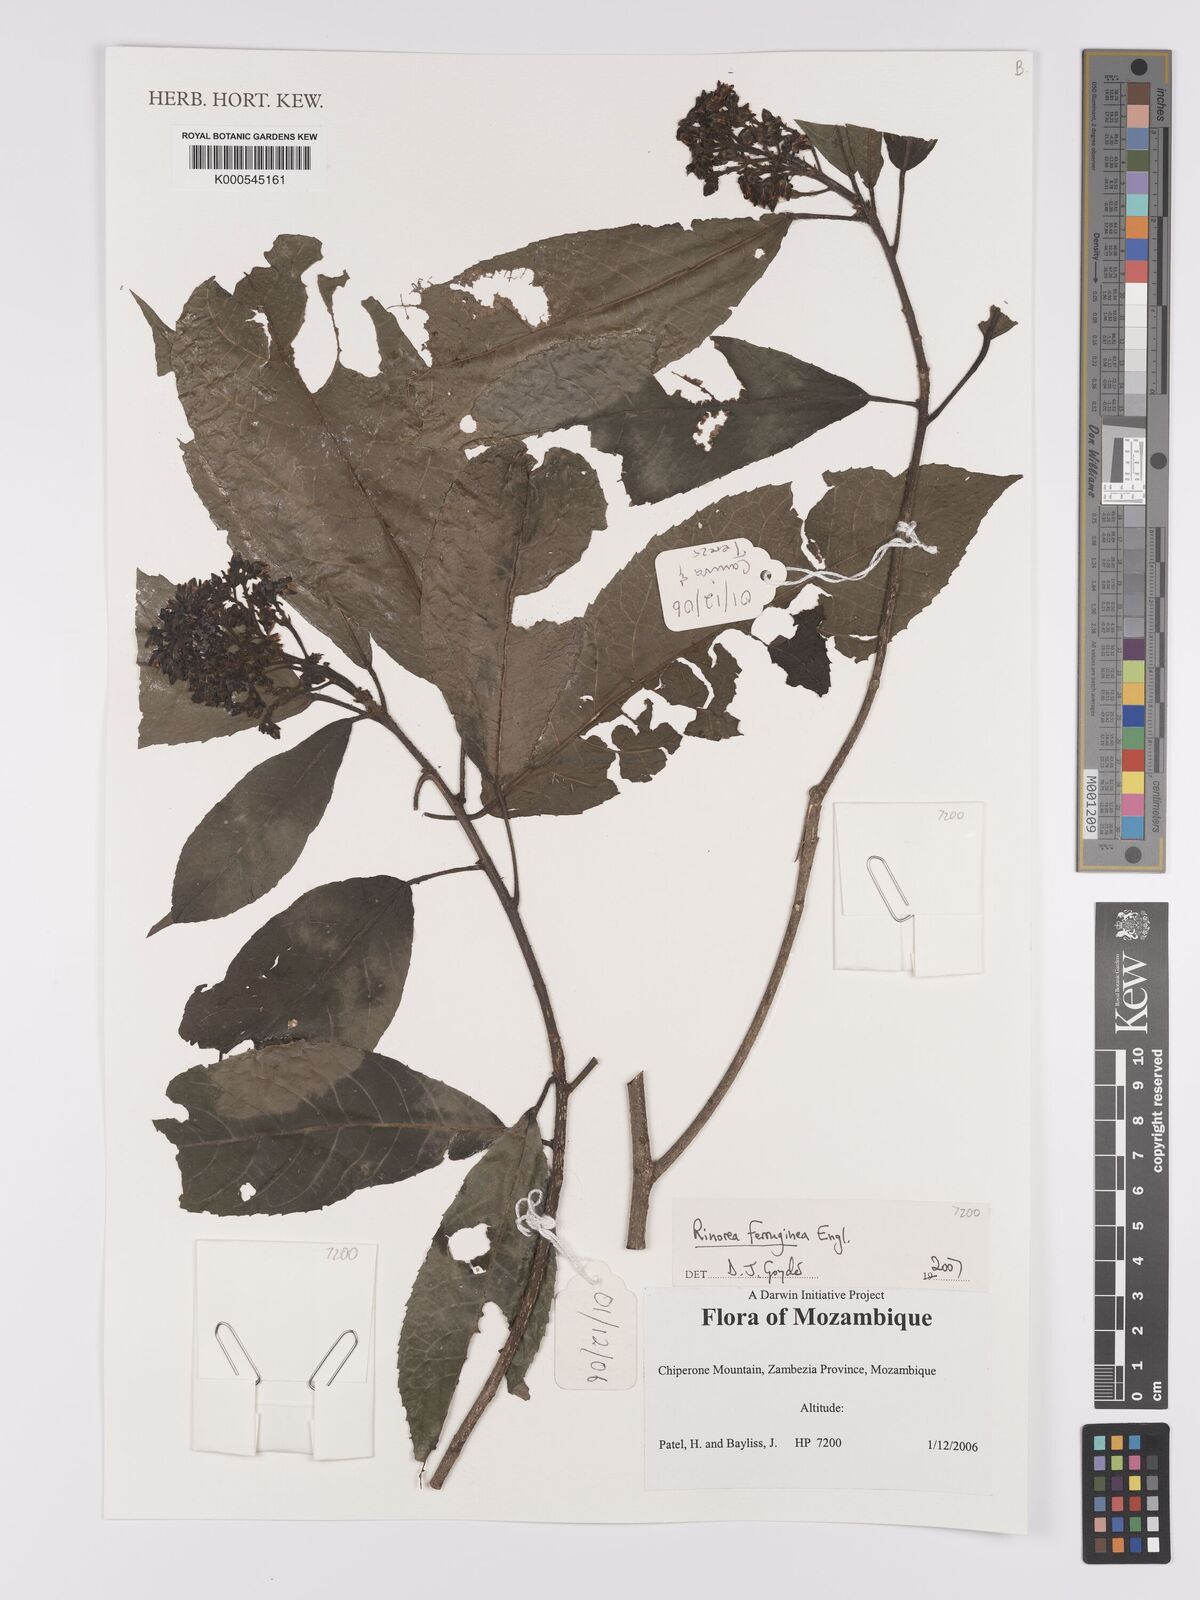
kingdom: Plantae
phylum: Tracheophyta
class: Magnoliopsida
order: Malpighiales
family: Violaceae
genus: Rinorea
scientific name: Rinorea ferruginea
